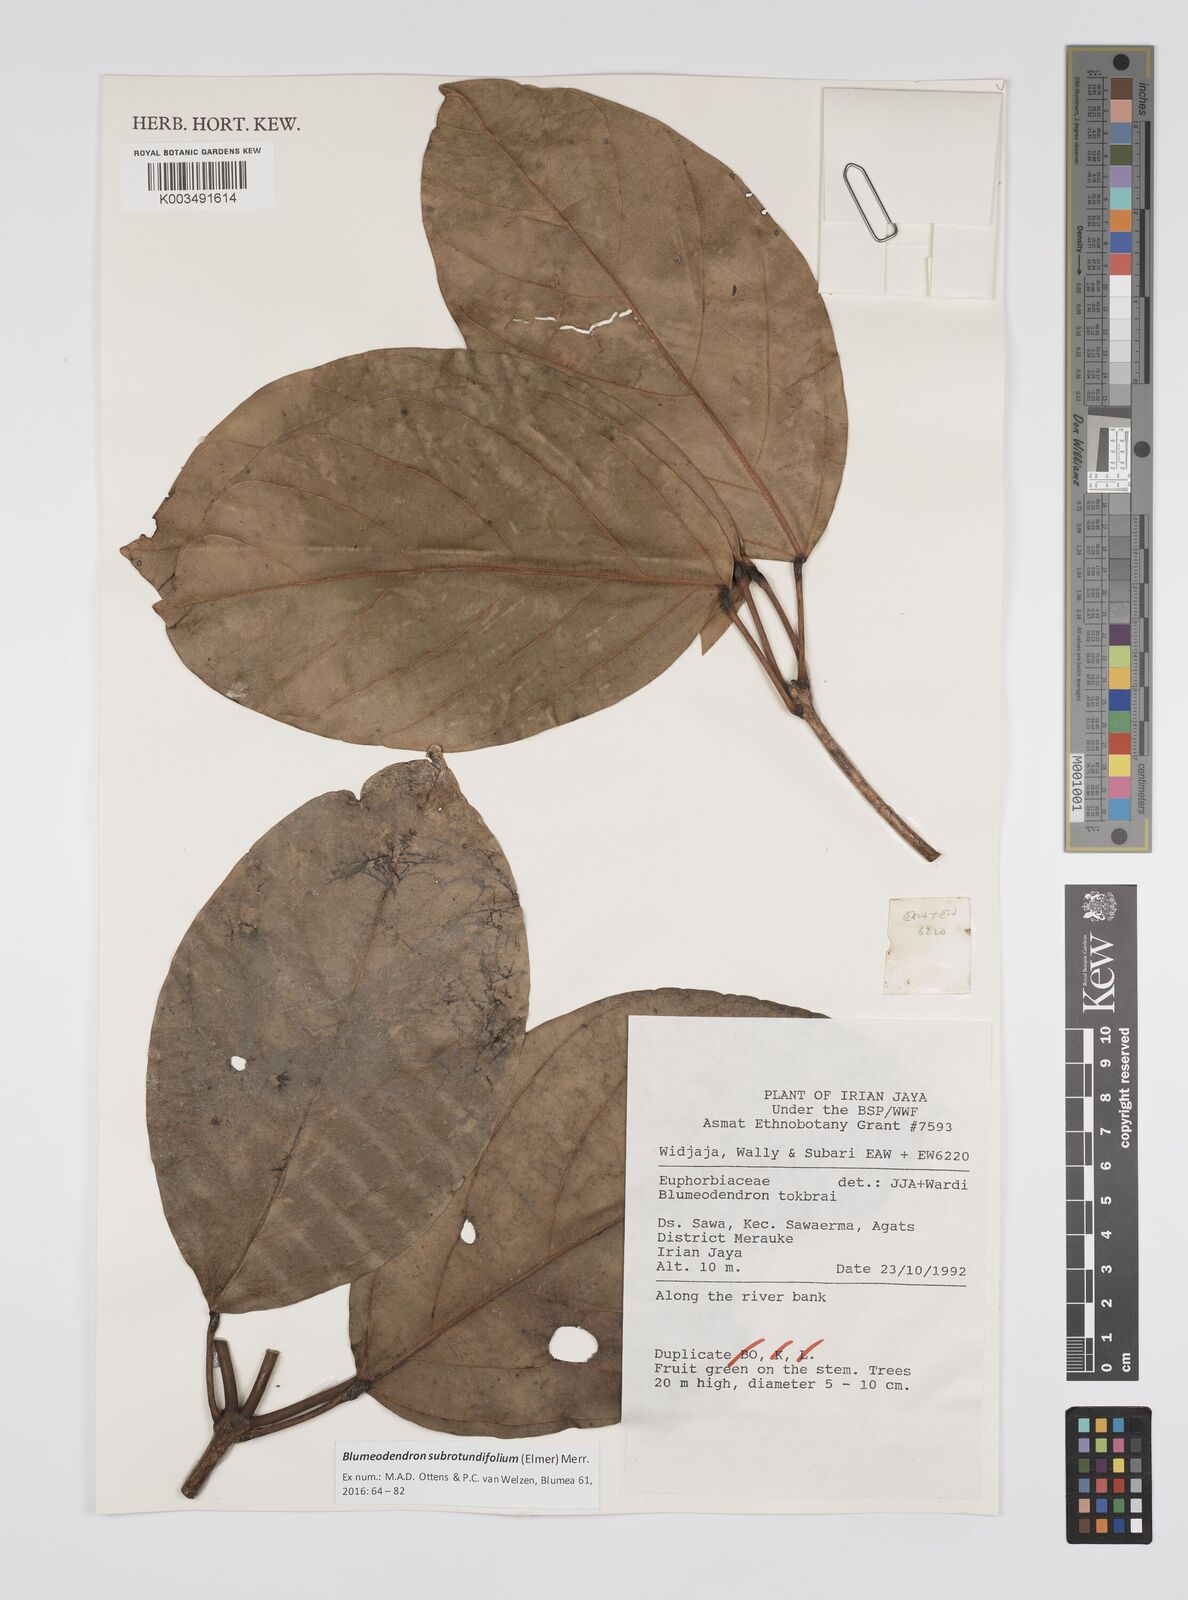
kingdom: Plantae
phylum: Tracheophyta
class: Magnoliopsida
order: Malpighiales
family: Euphorbiaceae
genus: Blumeodendron
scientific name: Blumeodendron subrotundifolium
